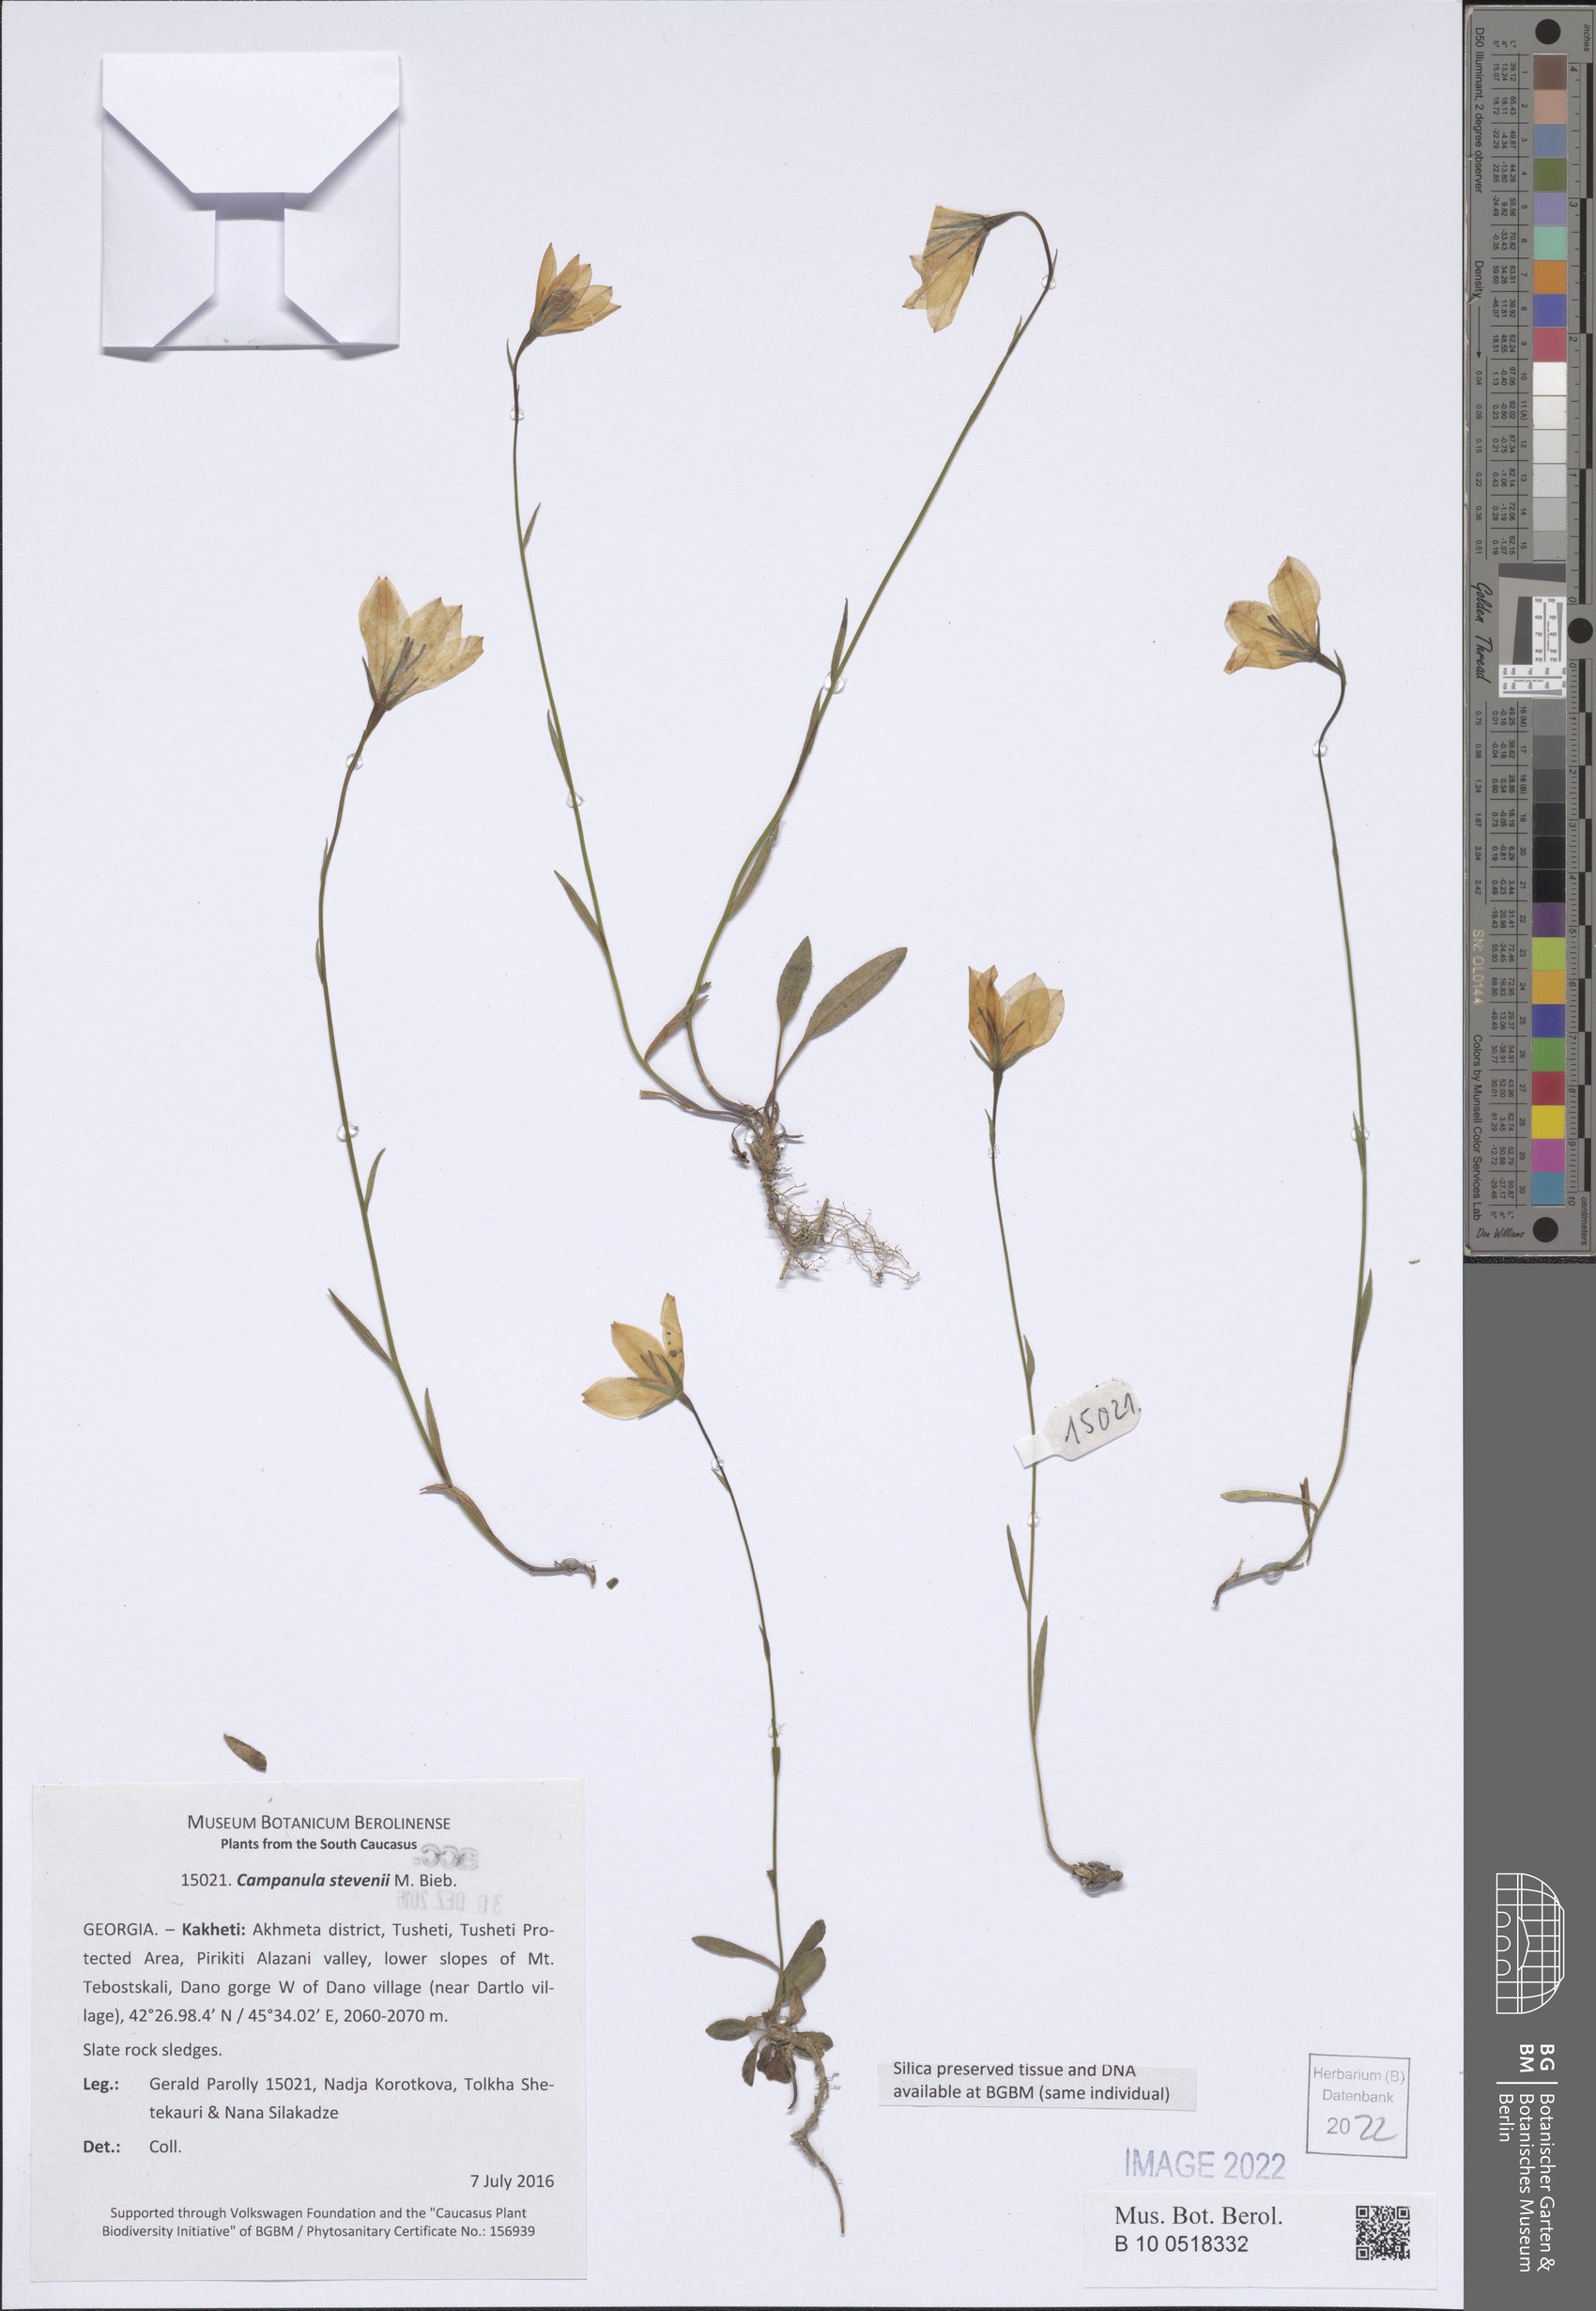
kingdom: Plantae
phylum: Tracheophyta
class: Magnoliopsida
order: Asterales
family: Campanulaceae
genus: Campanula
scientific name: Campanula stevenii
